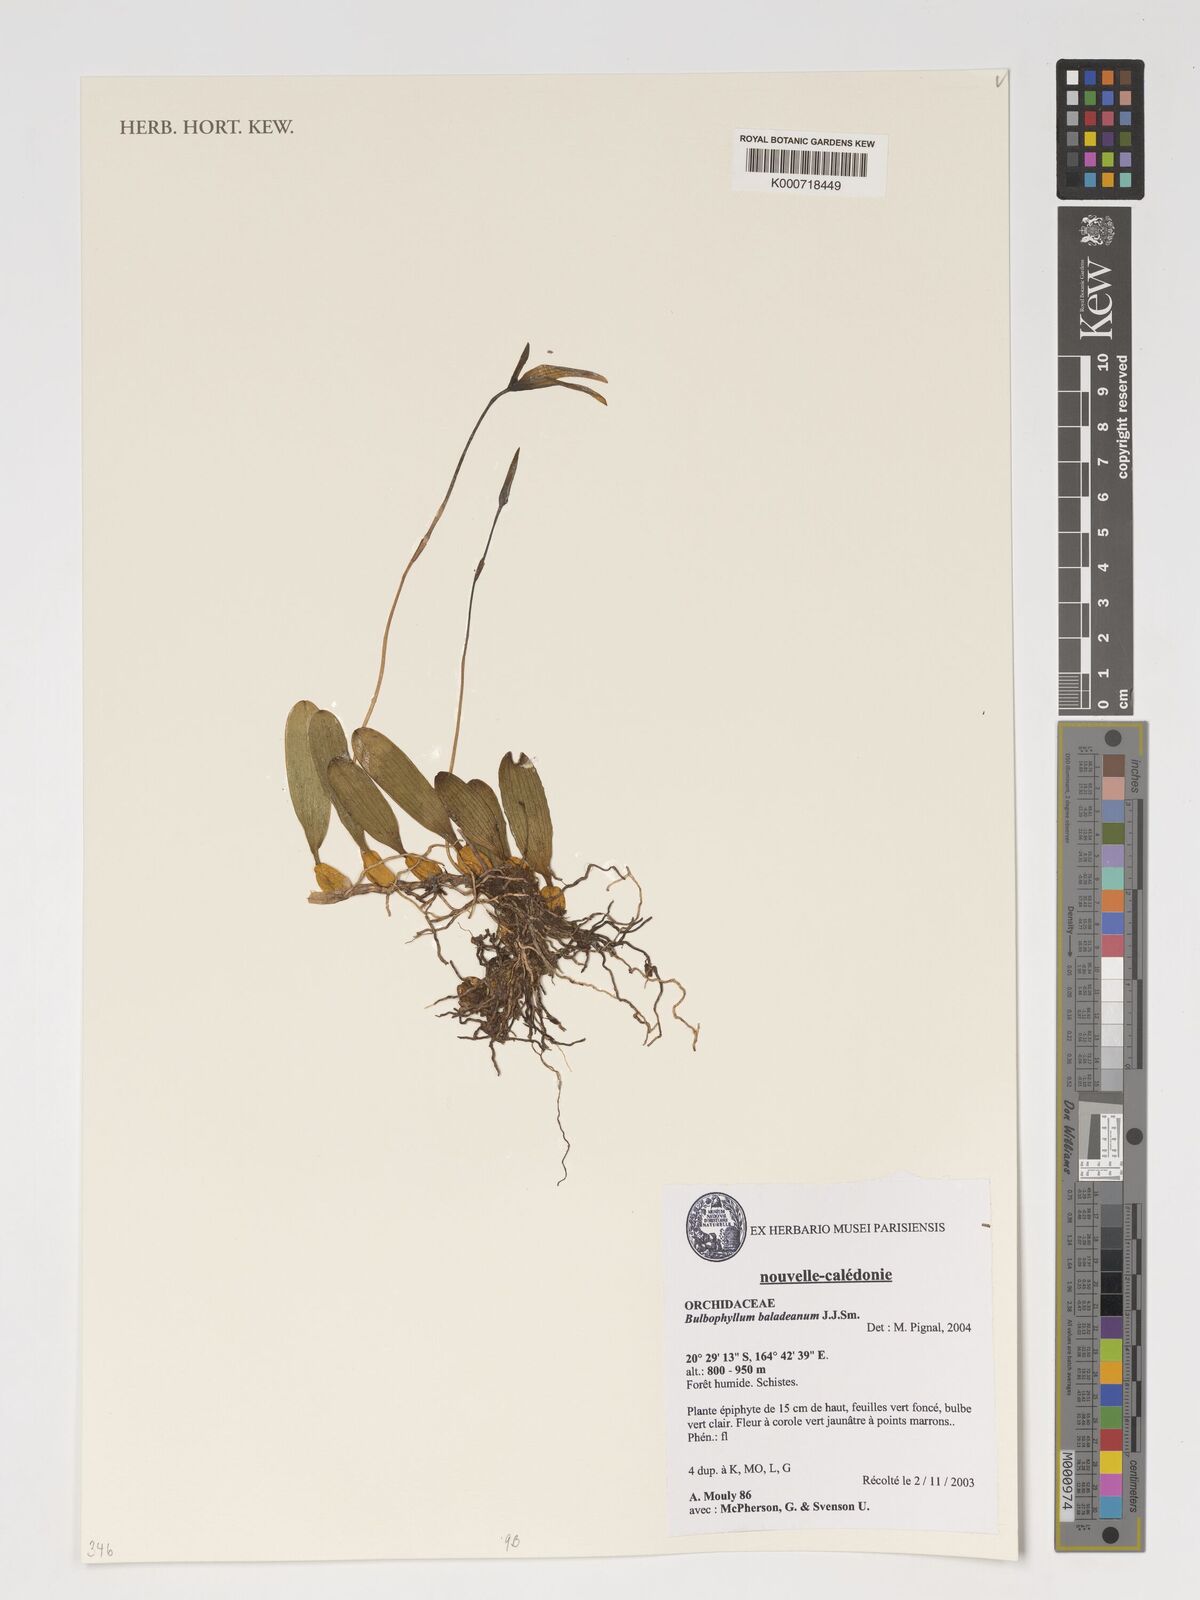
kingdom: Plantae
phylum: Tracheophyta
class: Liliopsida
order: Asparagales
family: Orchidaceae
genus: Bulbophyllum
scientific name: Bulbophyllum baladeanum
